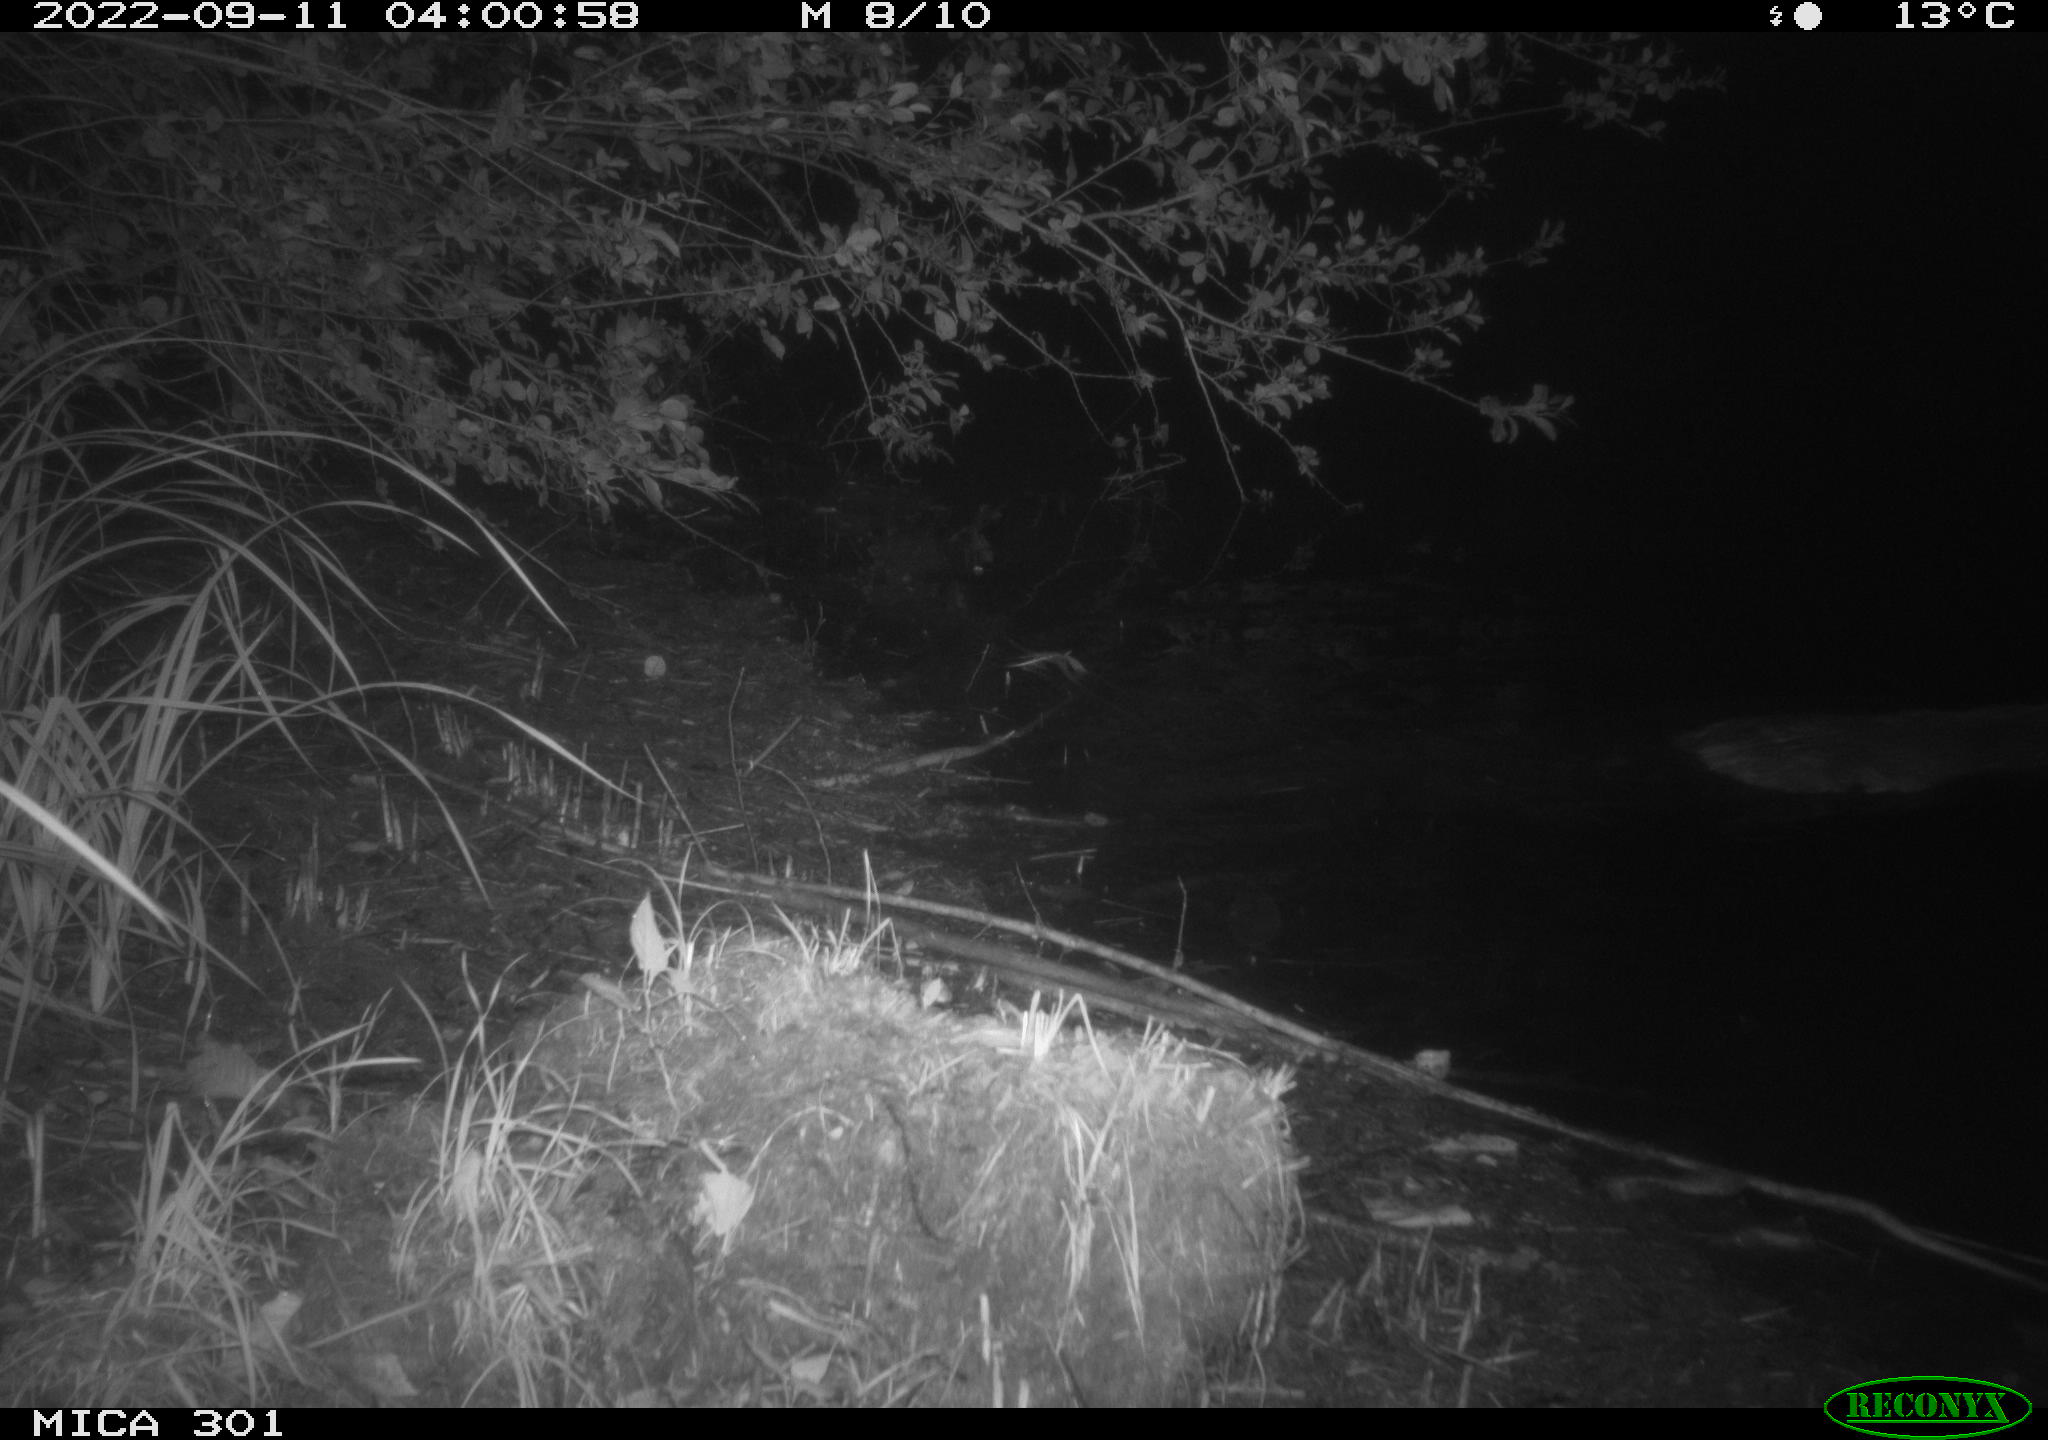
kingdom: Animalia
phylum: Chordata
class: Mammalia
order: Rodentia
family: Castoridae
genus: Castor
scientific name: Castor fiber
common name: Eurasian beaver
